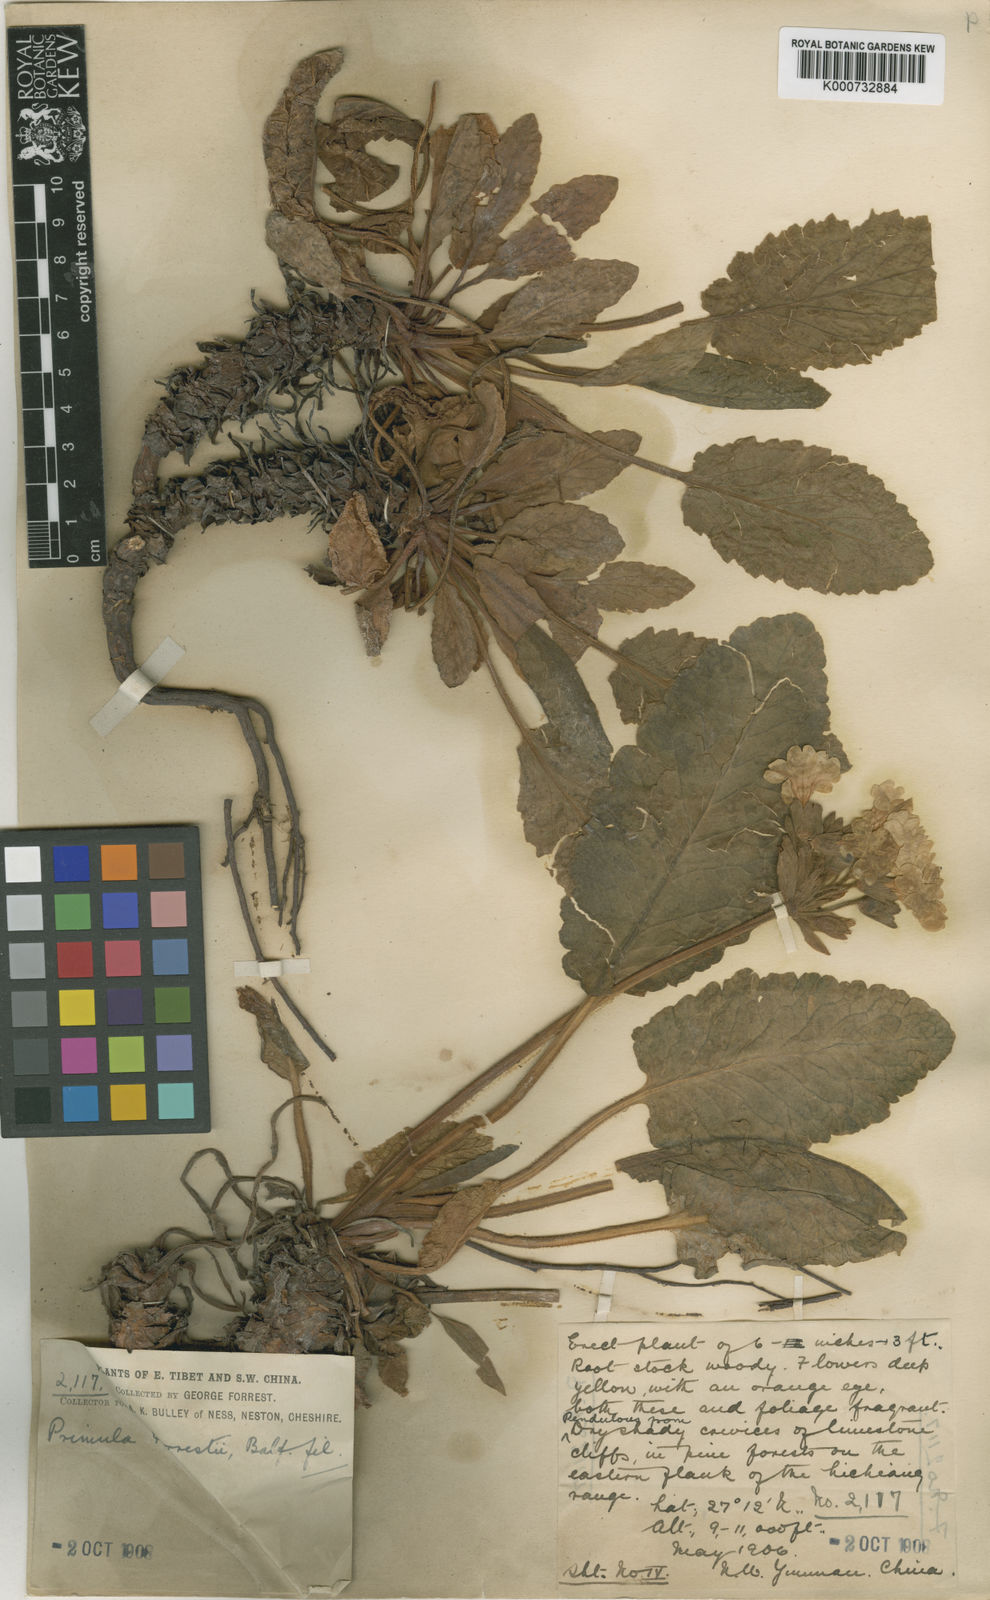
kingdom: Plantae
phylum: Tracheophyta
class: Magnoliopsida
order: Ericales
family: Primulaceae
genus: Primula
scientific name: Primula bullata
